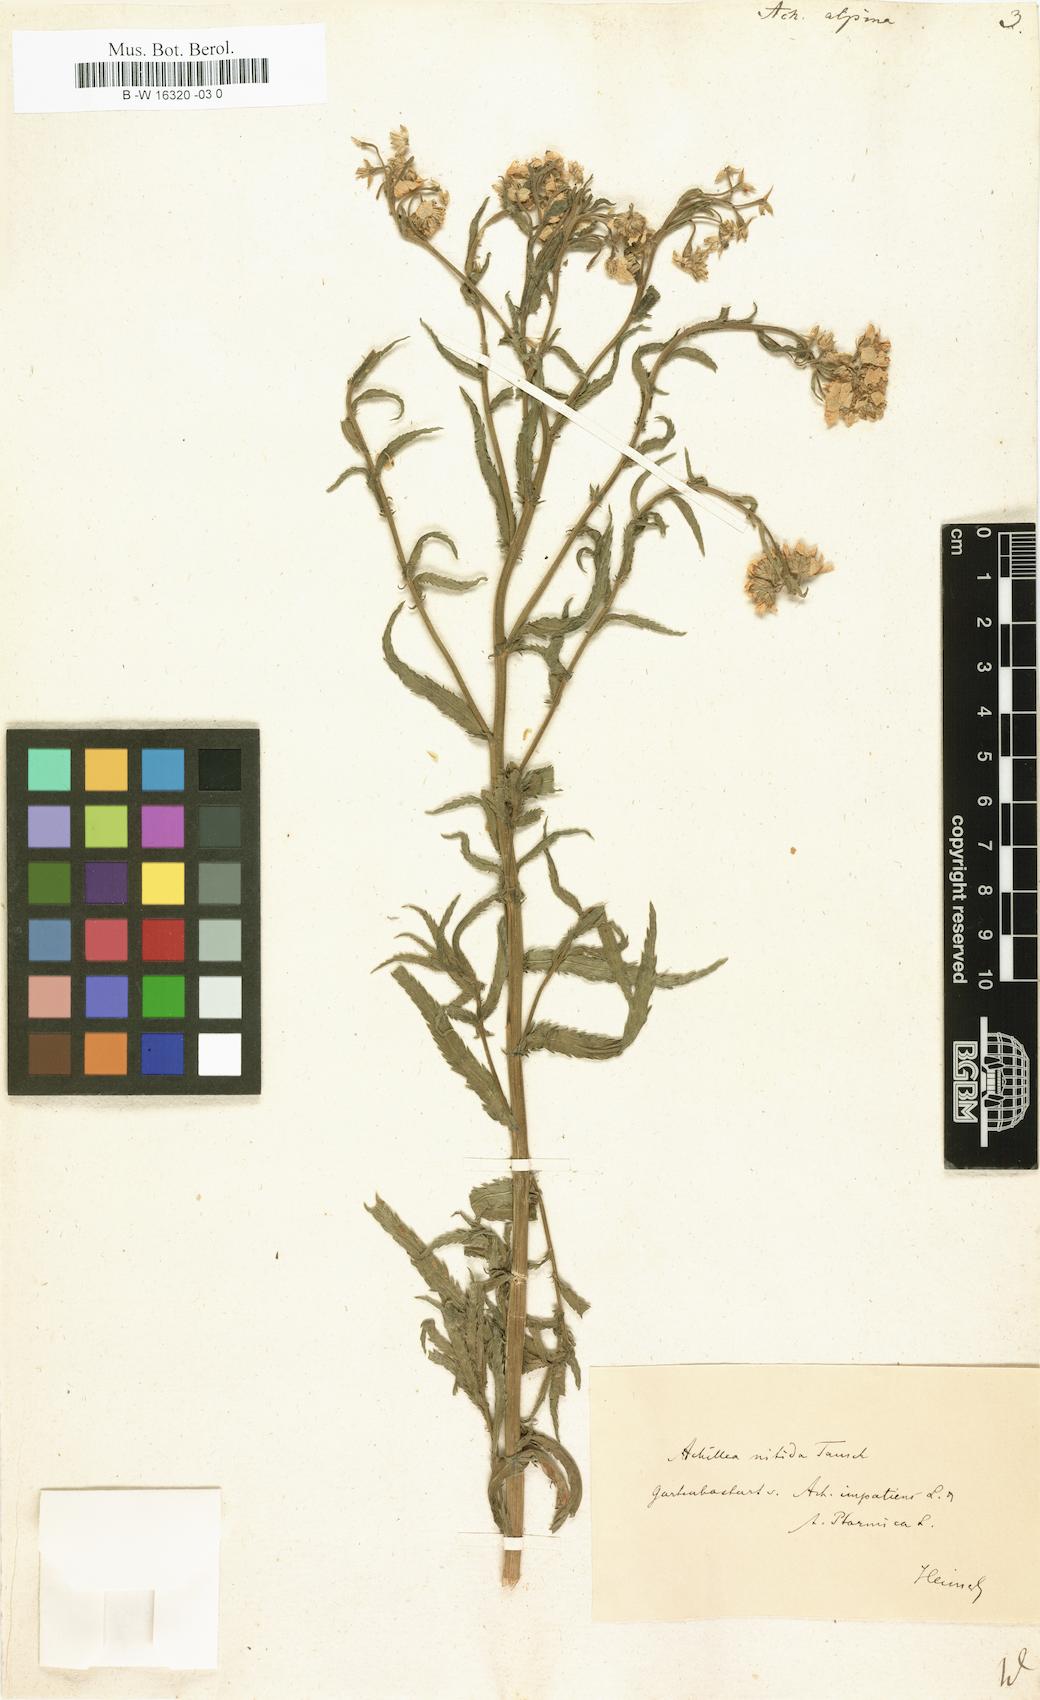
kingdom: Plantae
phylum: Tracheophyta
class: Magnoliopsida
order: Asterales
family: Asteraceae
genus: Achillea
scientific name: Achillea alpina
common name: Siberian yarrow
